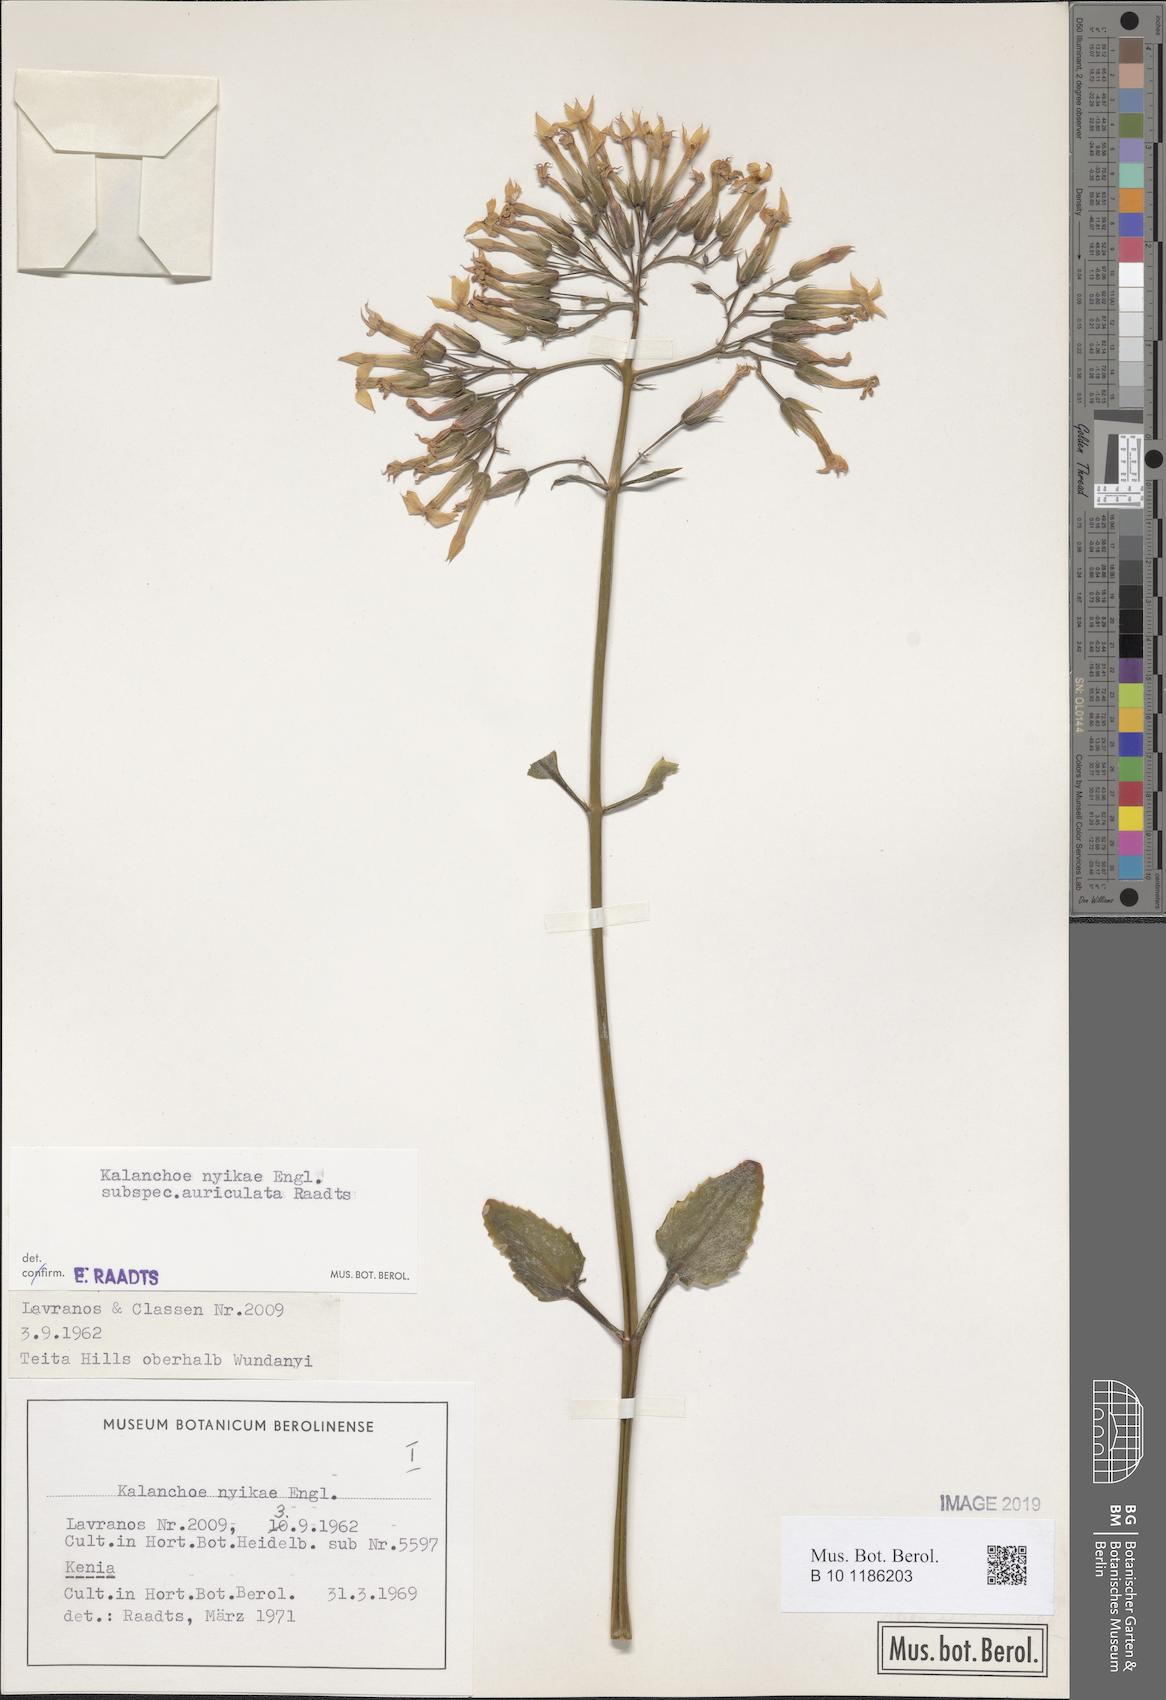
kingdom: Plantae
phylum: Tracheophyta
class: Magnoliopsida
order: Saxifragales
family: Crassulaceae
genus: Kalanchoe
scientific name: Kalanchoe auriculata
